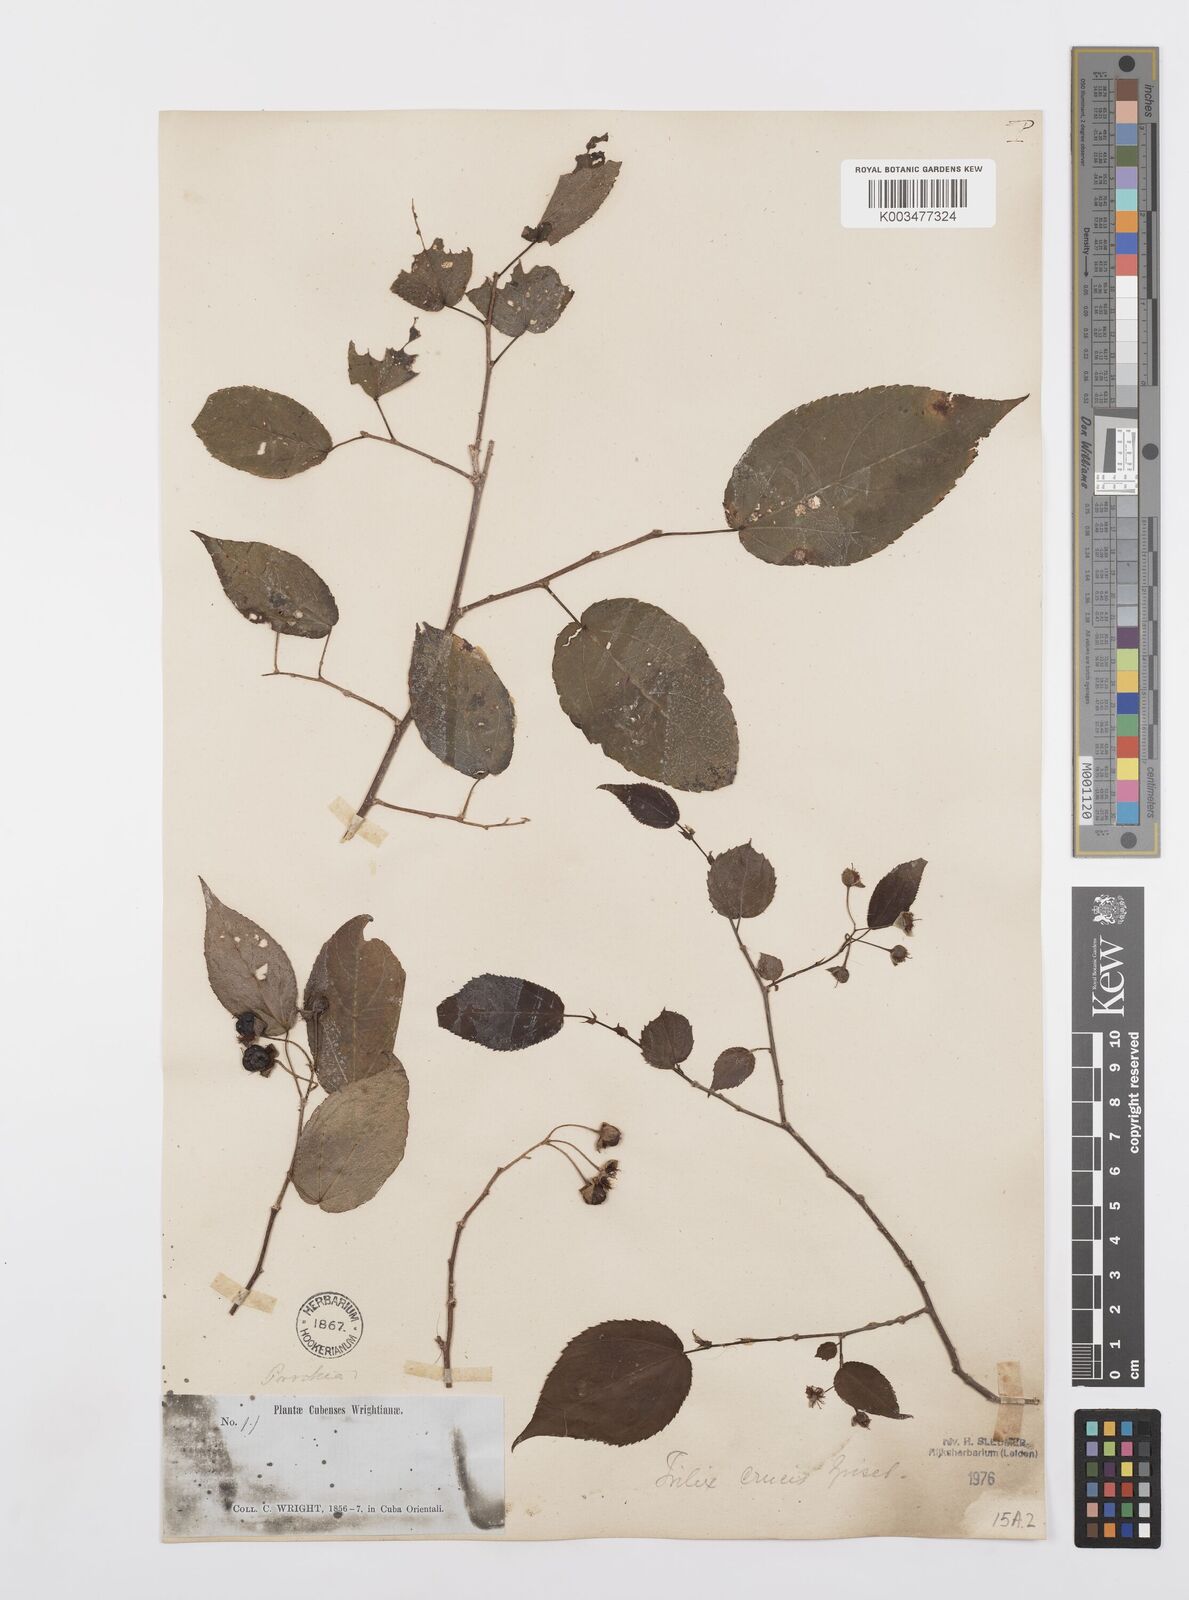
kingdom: Plantae
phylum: Tracheophyta
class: Magnoliopsida
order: Malpighiales
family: Salicaceae
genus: Prockia
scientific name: Prockia crucis
